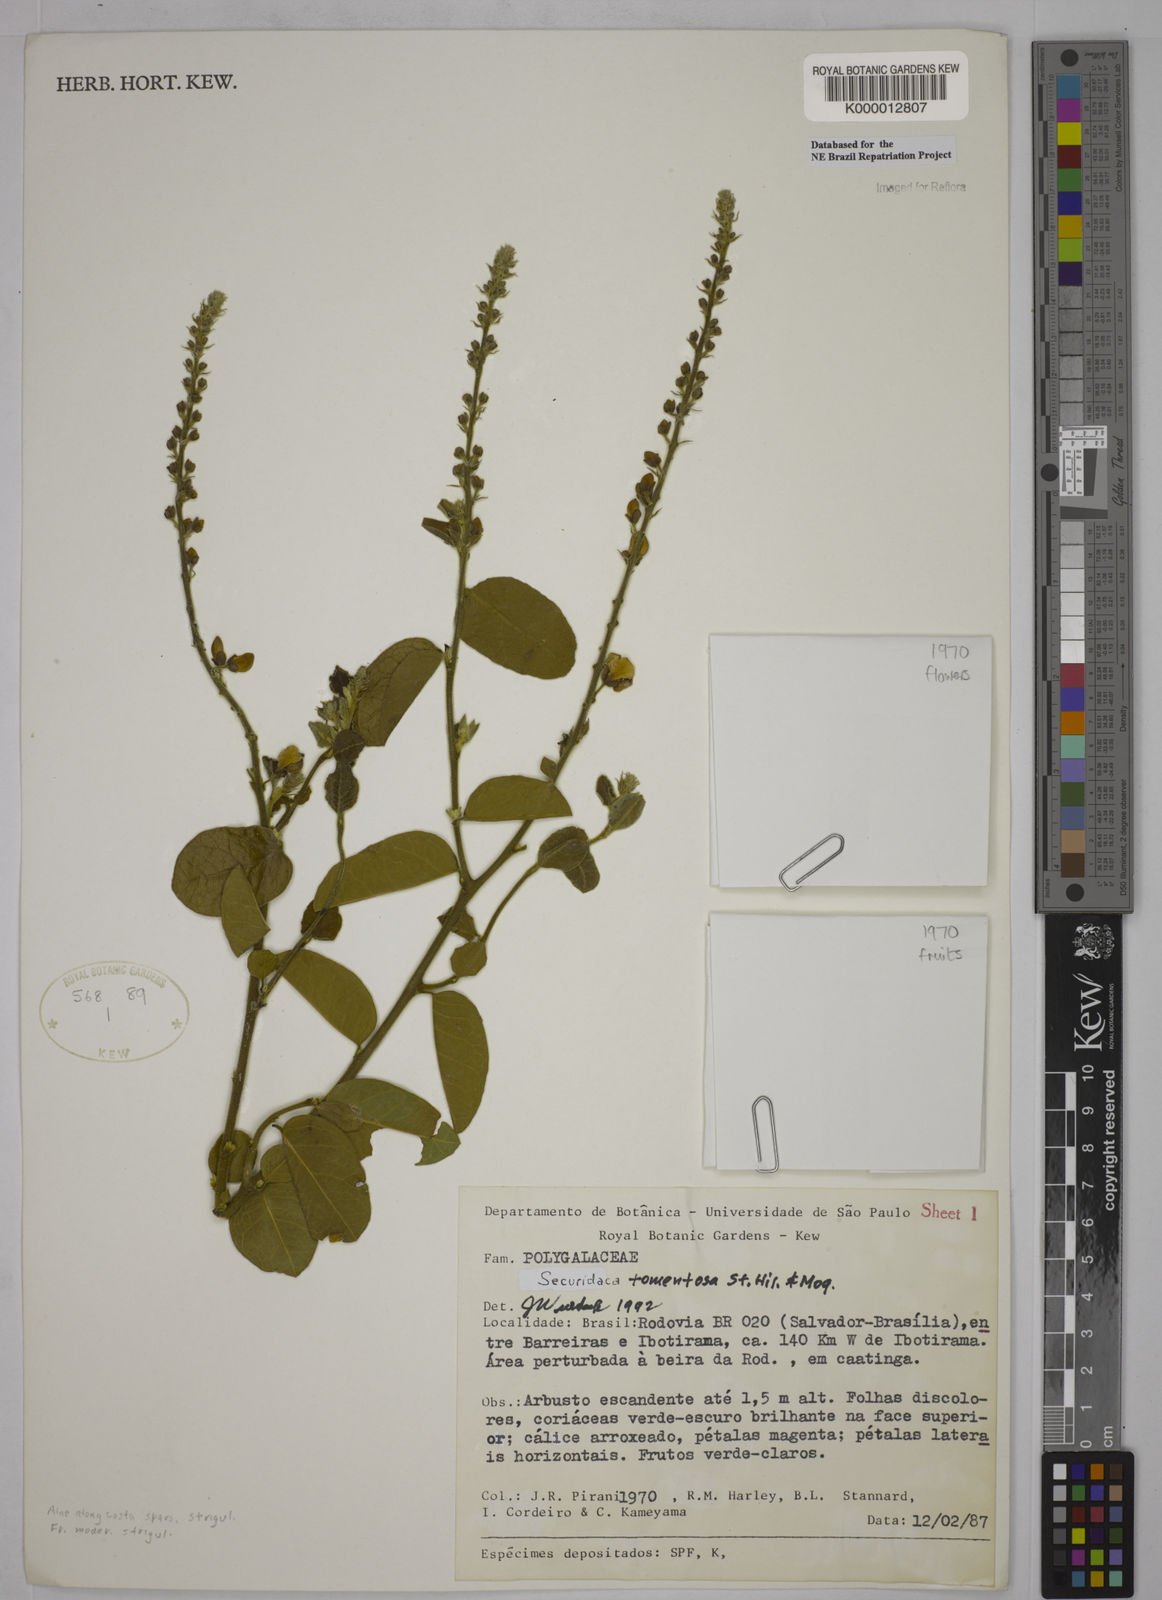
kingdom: Plantae
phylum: Tracheophyta
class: Magnoliopsida
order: Fabales
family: Polygalaceae
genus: Securidaca
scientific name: Securidaca tomentosa
